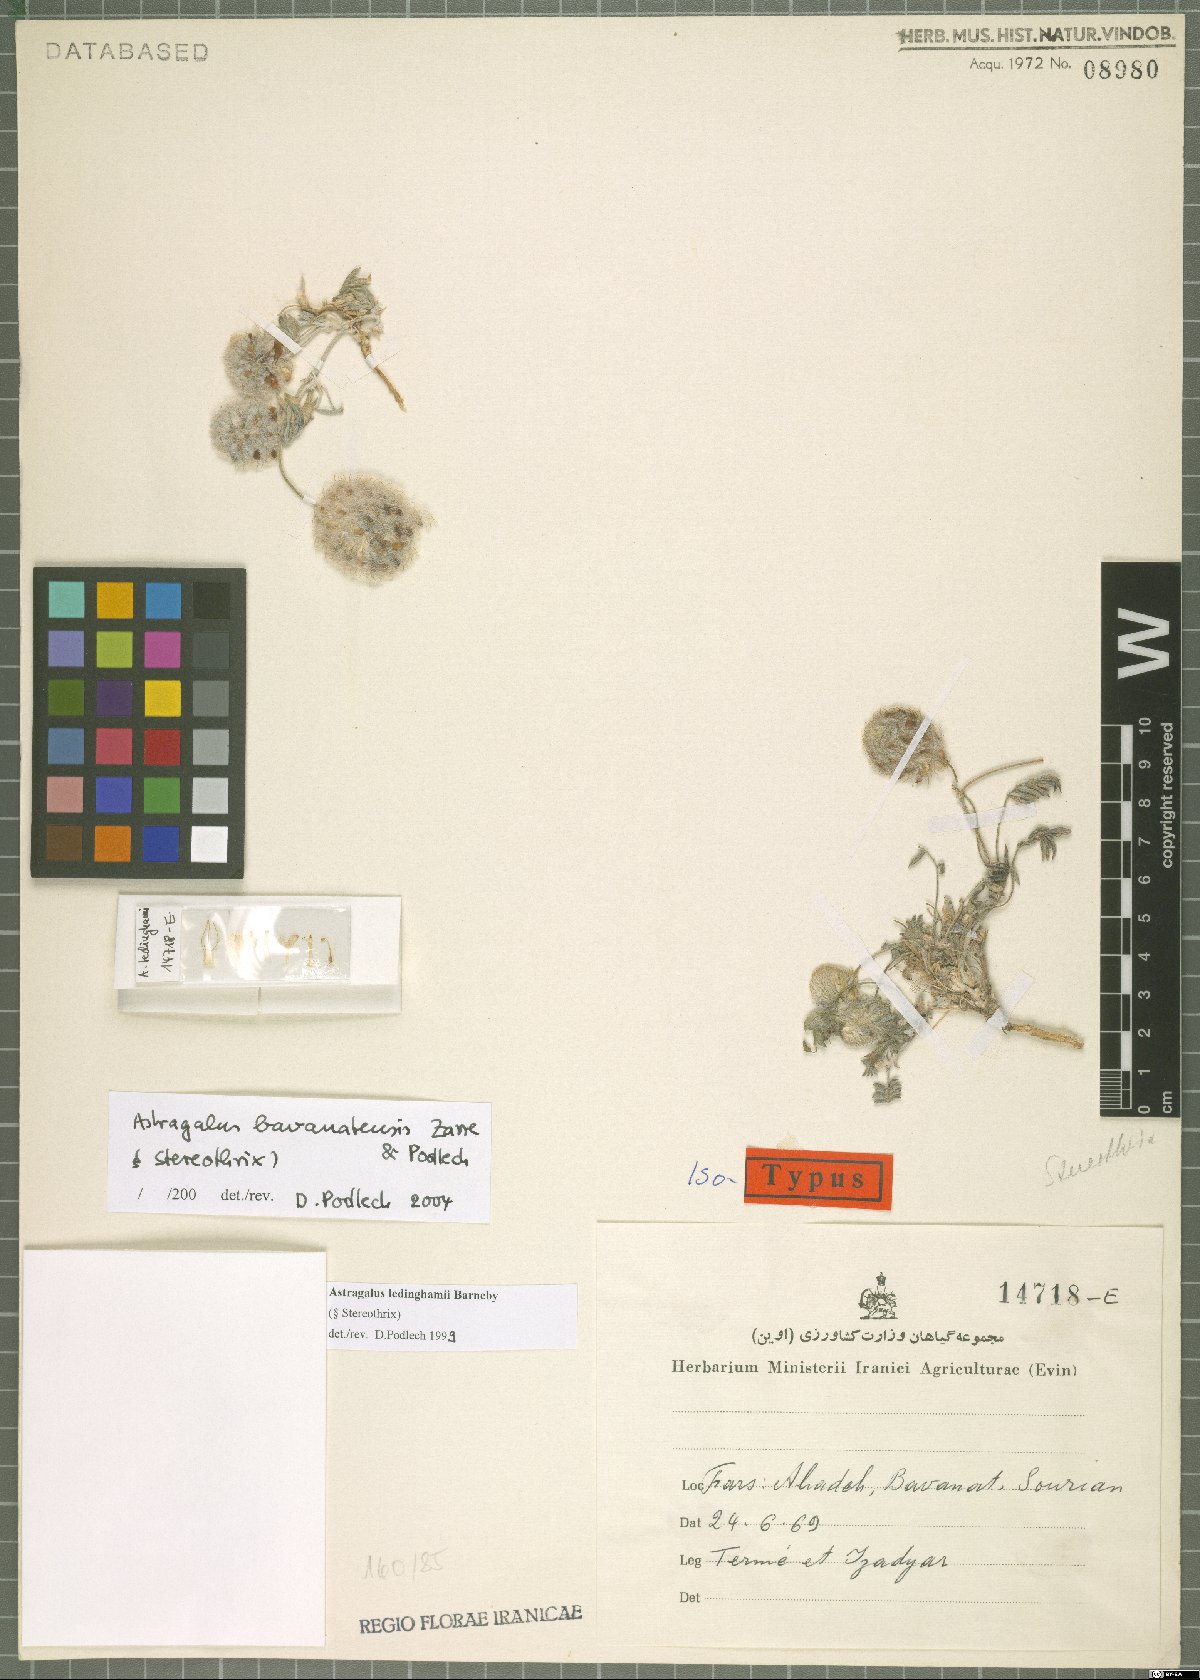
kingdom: Plantae
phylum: Tracheophyta
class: Magnoliopsida
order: Fabales
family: Fabaceae
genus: Astragalus
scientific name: Astragalus bavanatensis
